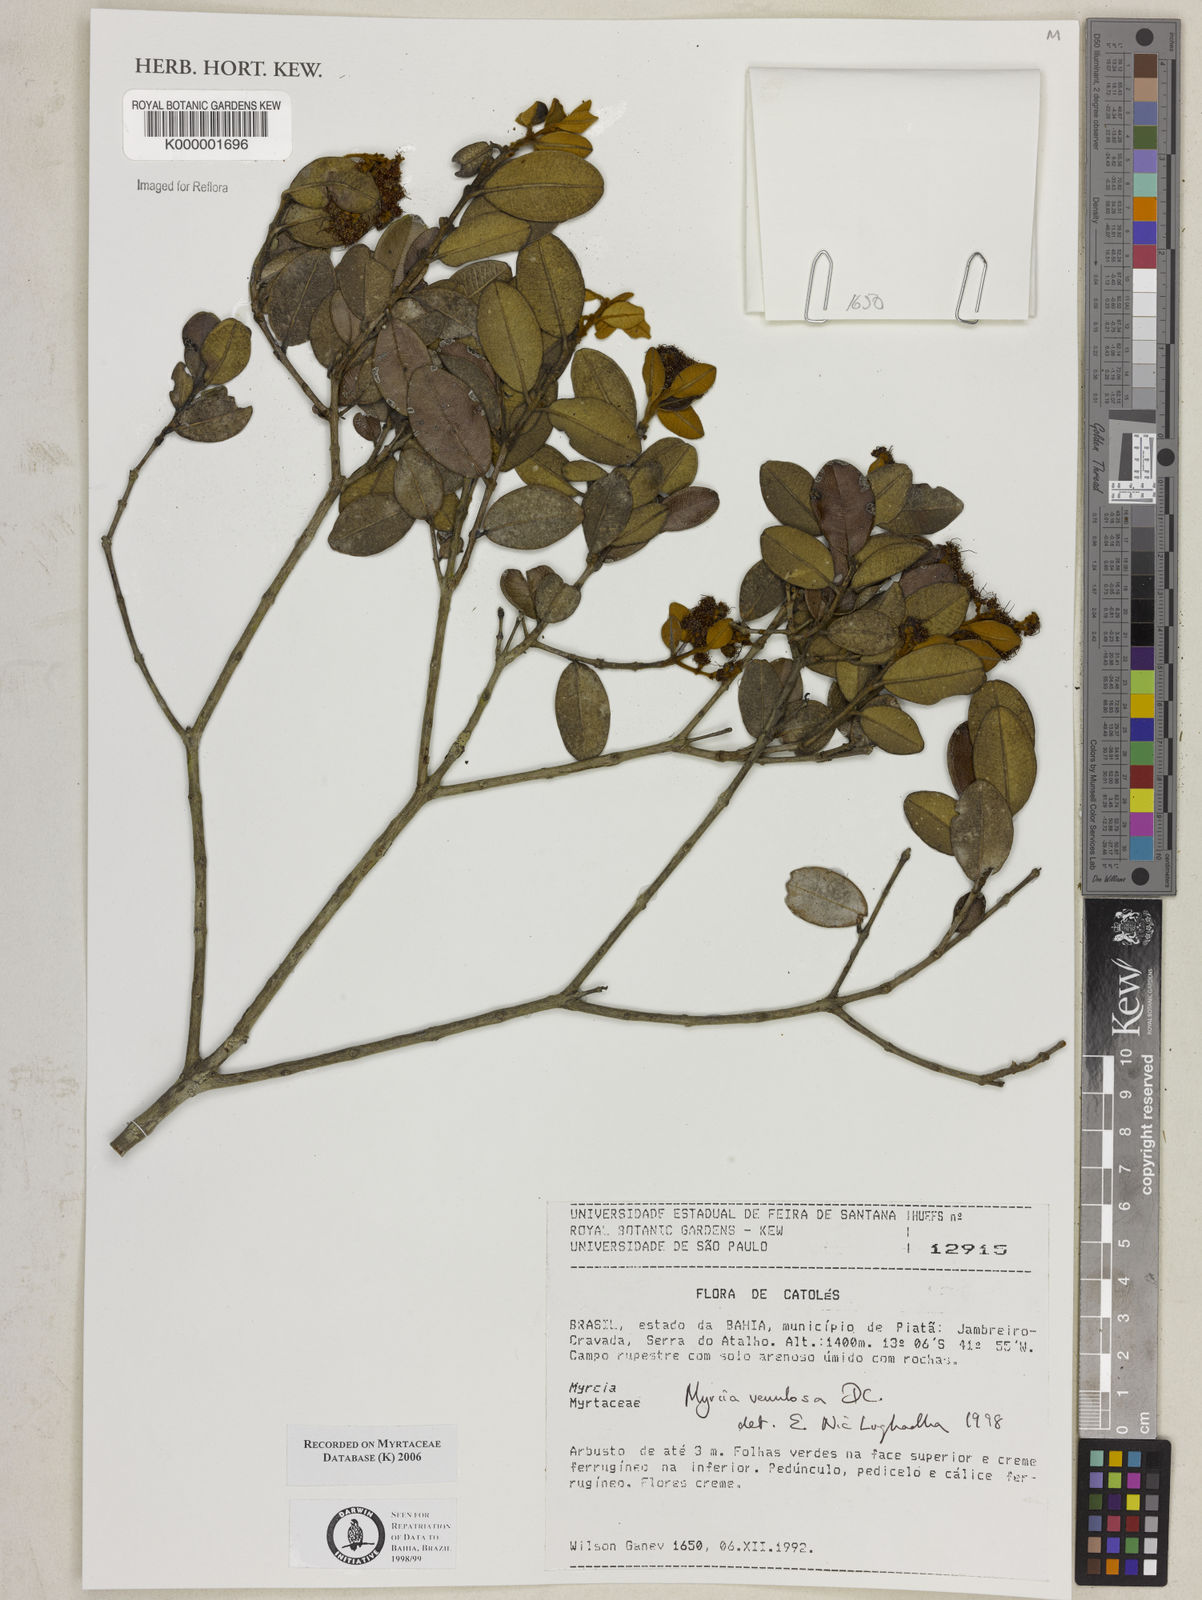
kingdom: Plantae
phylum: Tracheophyta
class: Magnoliopsida
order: Myrtales
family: Myrtaceae
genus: Myrcia
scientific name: Myrcia venulosa
